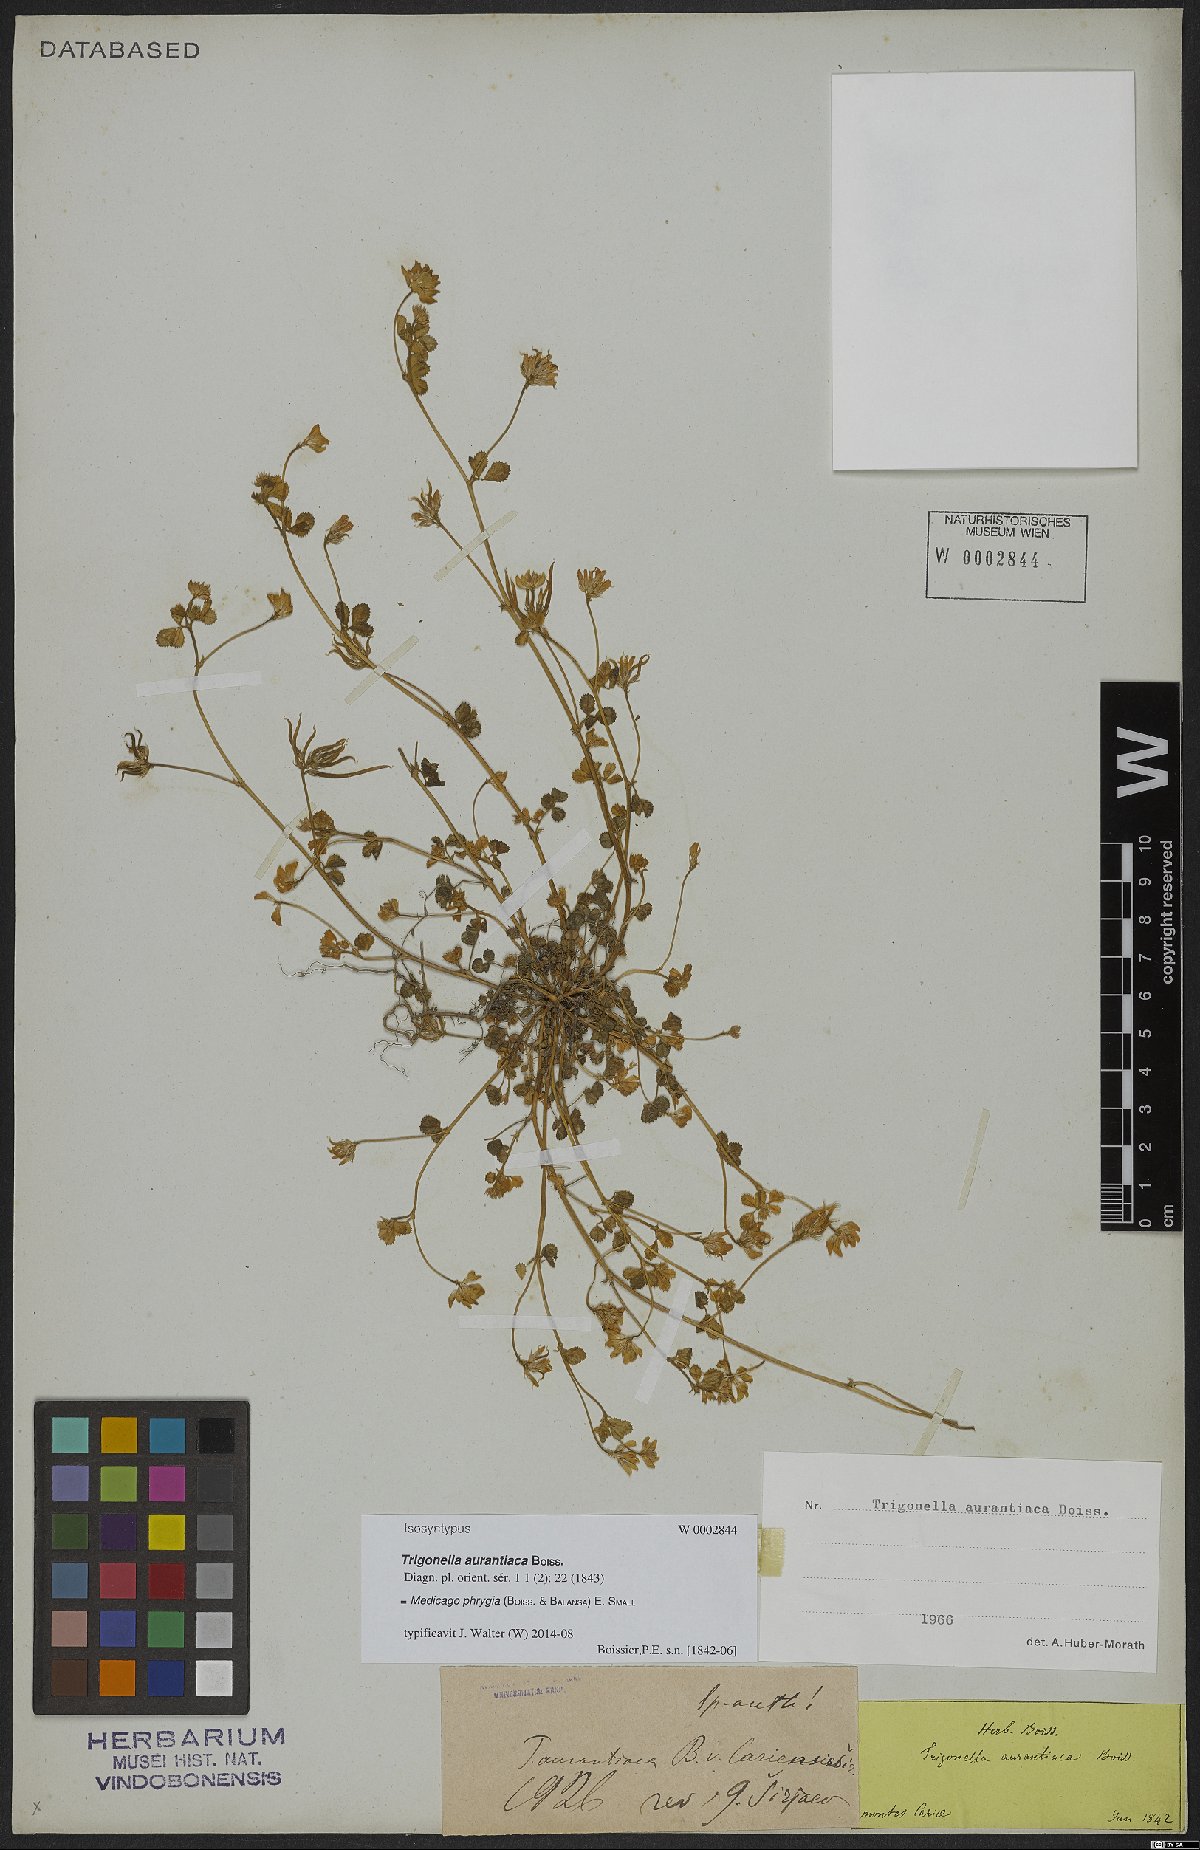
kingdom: Plantae
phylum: Tracheophyta
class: Magnoliopsida
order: Fabales
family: Fabaceae
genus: Medicago
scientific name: Medicago phrygia
